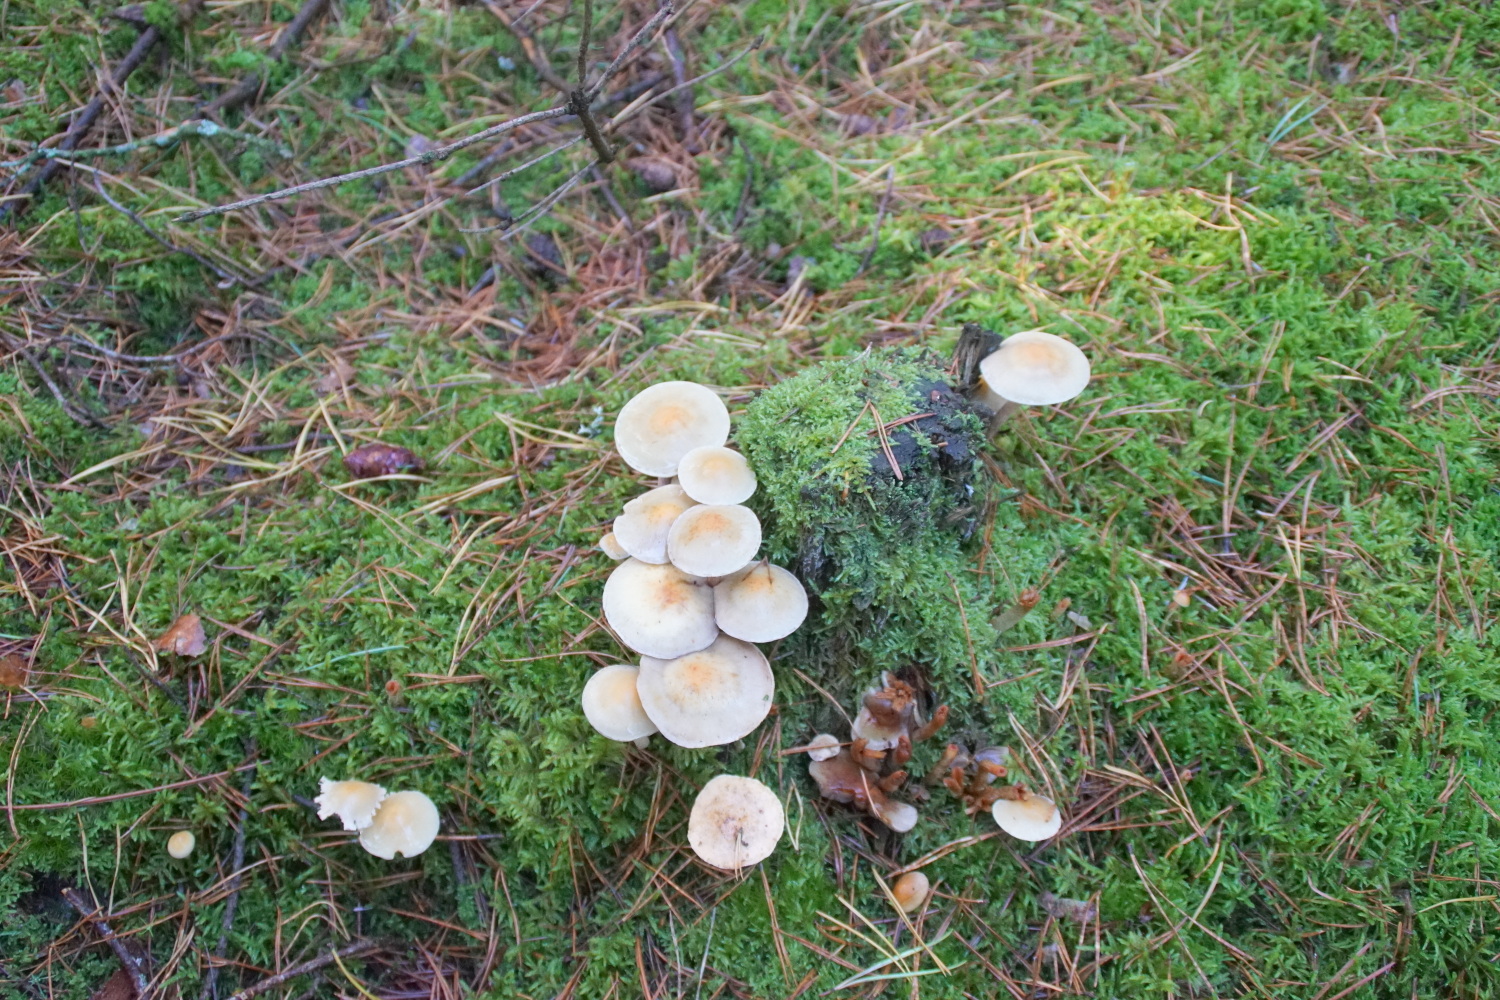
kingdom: Fungi
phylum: Basidiomycota
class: Agaricomycetes
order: Agaricales
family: Strophariaceae
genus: Hypholoma
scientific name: Hypholoma capnoides
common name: gran-svovlhat
